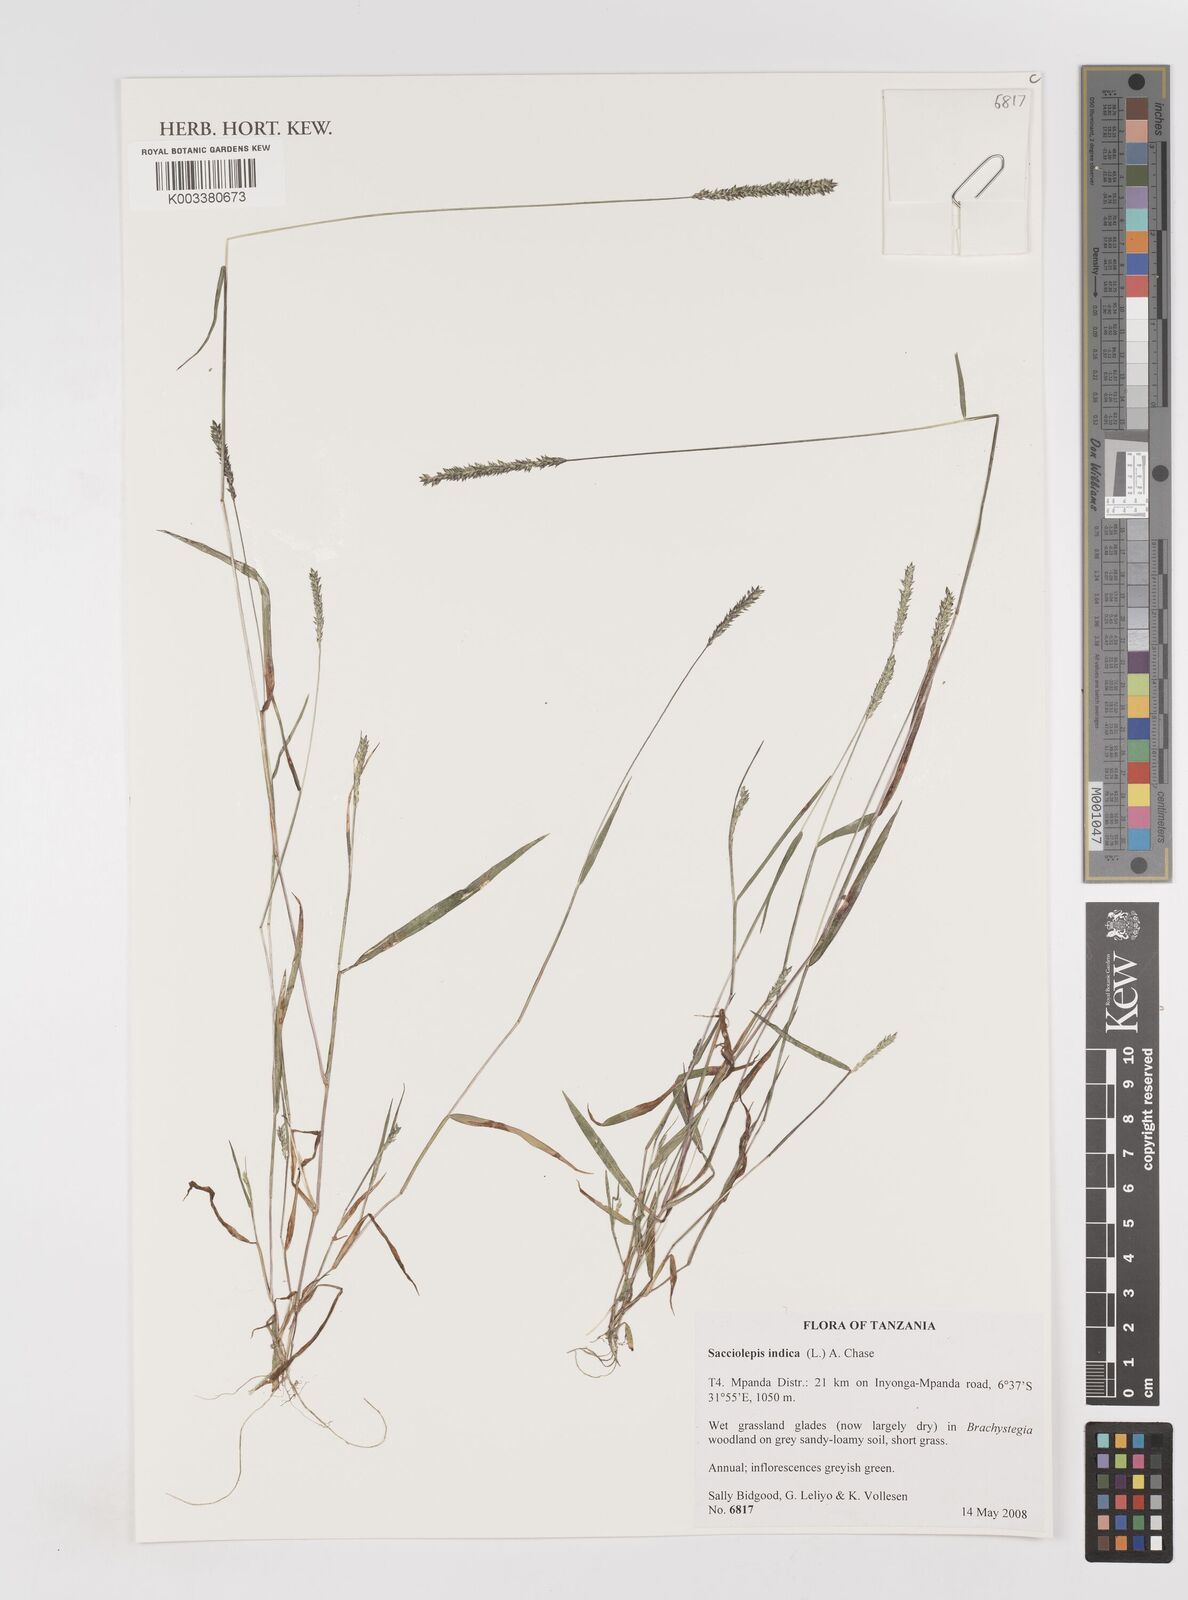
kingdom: Plantae
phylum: Tracheophyta
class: Liliopsida
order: Poales
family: Poaceae
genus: Sacciolepis
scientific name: Sacciolepis indica
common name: Glenwoodgrass
